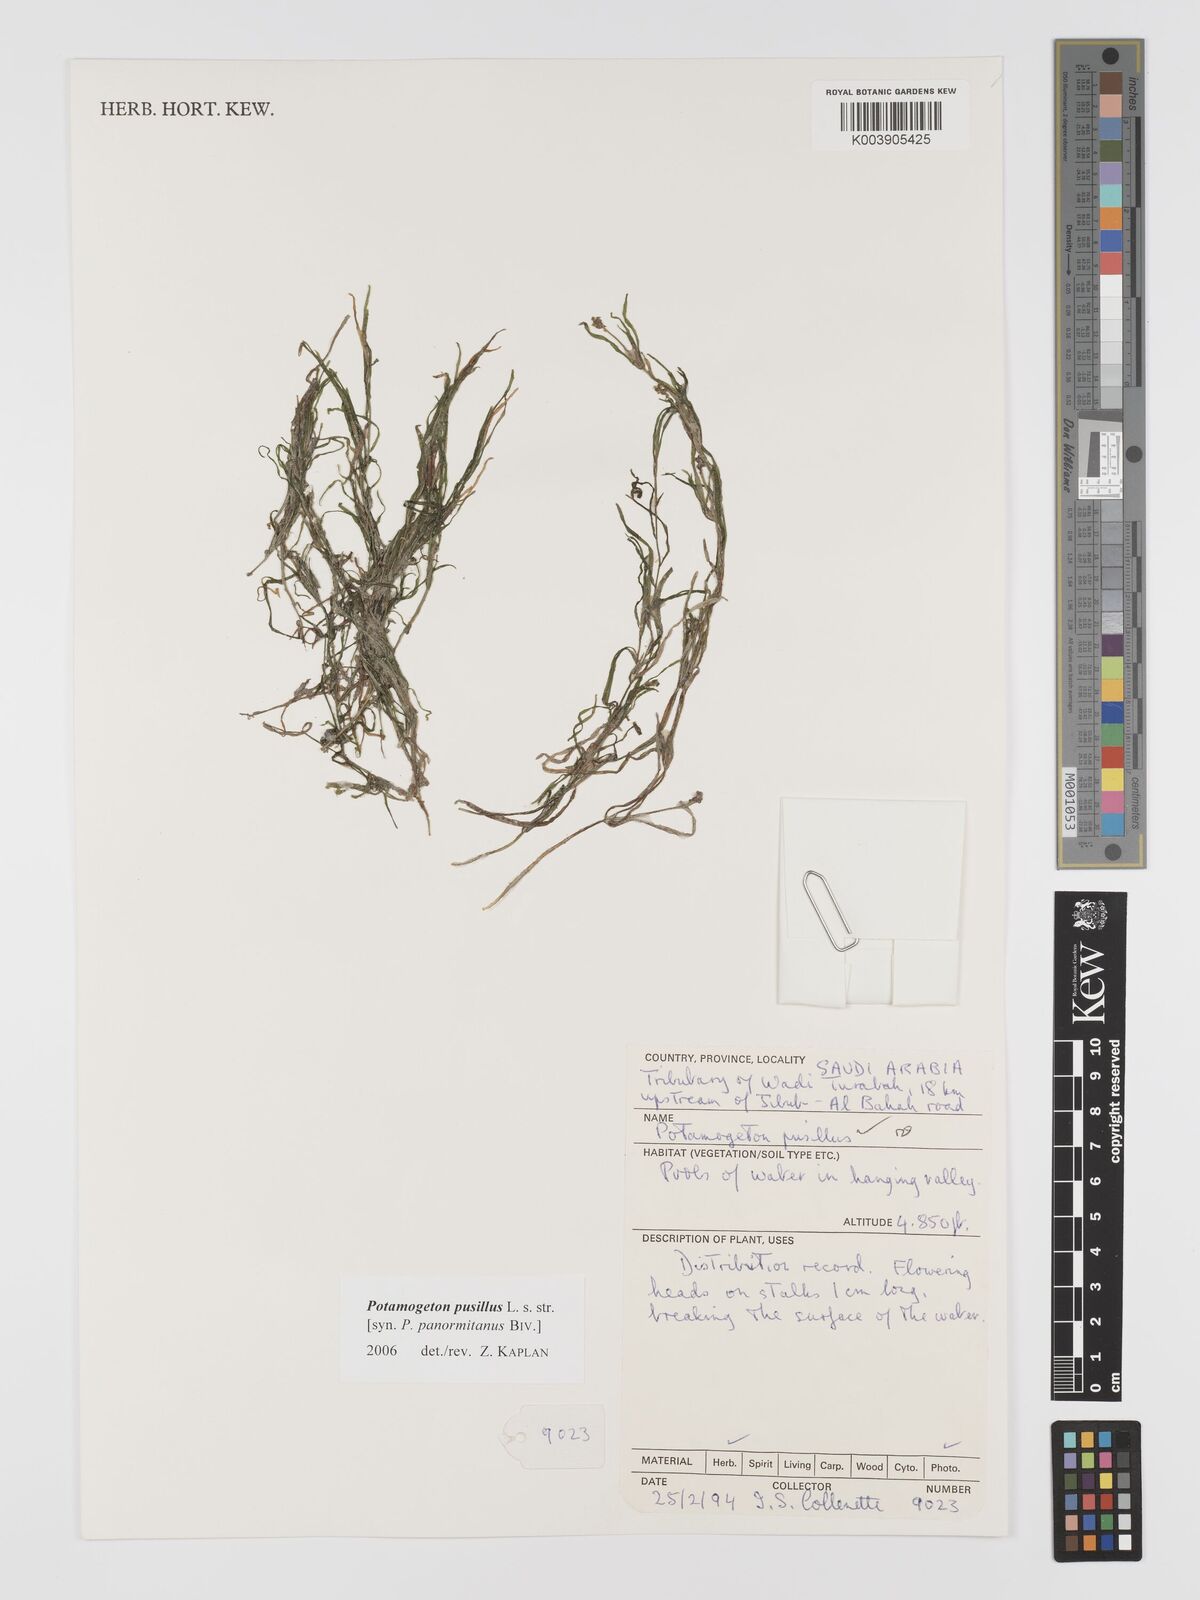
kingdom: Plantae
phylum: Tracheophyta
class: Liliopsida
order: Alismatales
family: Potamogetonaceae
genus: Potamogeton
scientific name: Potamogeton pusillus
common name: Lesser pondweed
